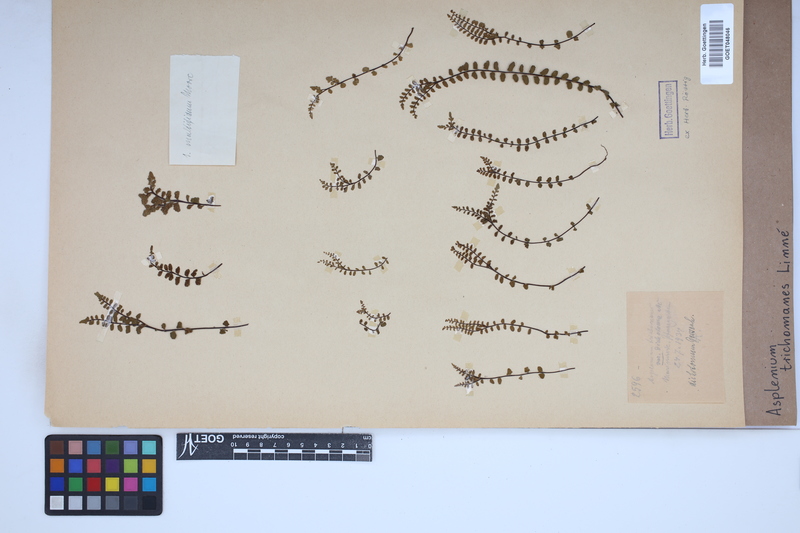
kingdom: Plantae
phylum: Tracheophyta
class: Polypodiopsida
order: Polypodiales
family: Aspleniaceae
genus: Asplenium
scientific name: Asplenium trichomanes
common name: Maidenhair spleenwort
